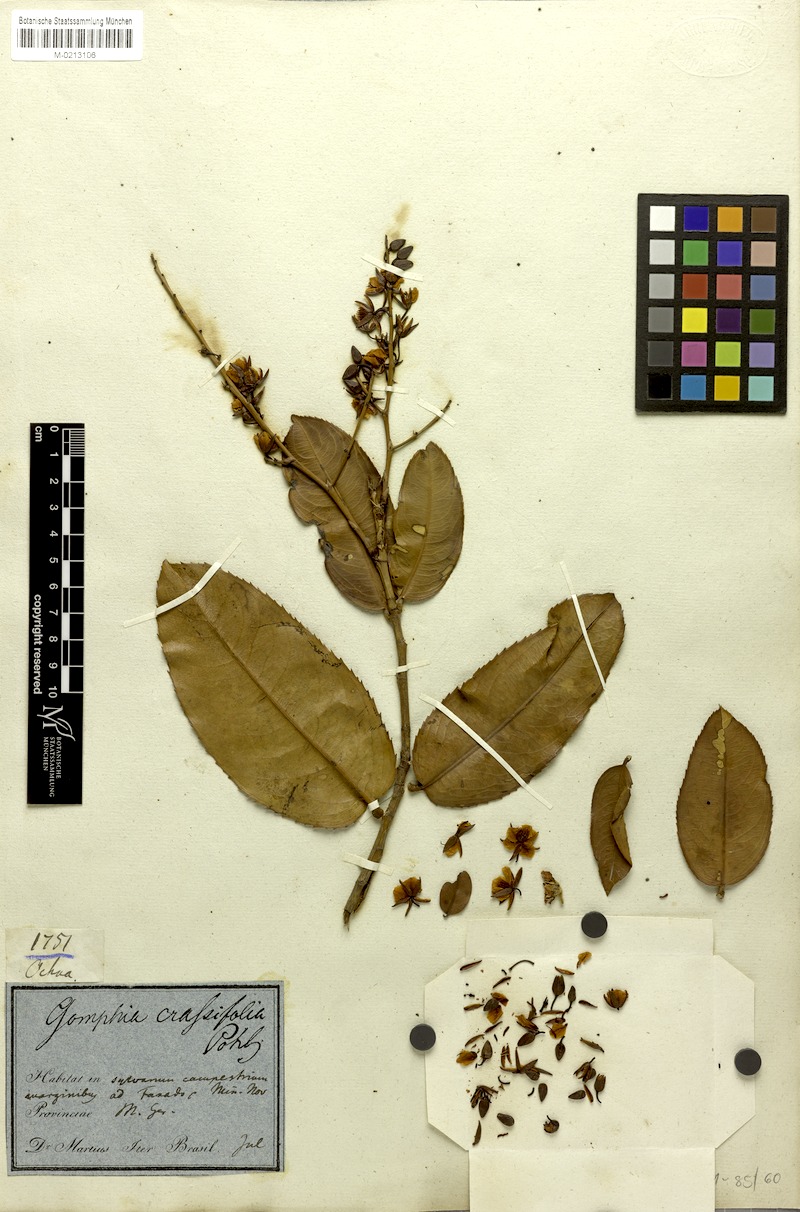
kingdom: Plantae
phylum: Tracheophyta
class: Magnoliopsida
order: Malpighiales
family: Ochnaceae
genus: Ouratea
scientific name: Ouratea crassifolia
